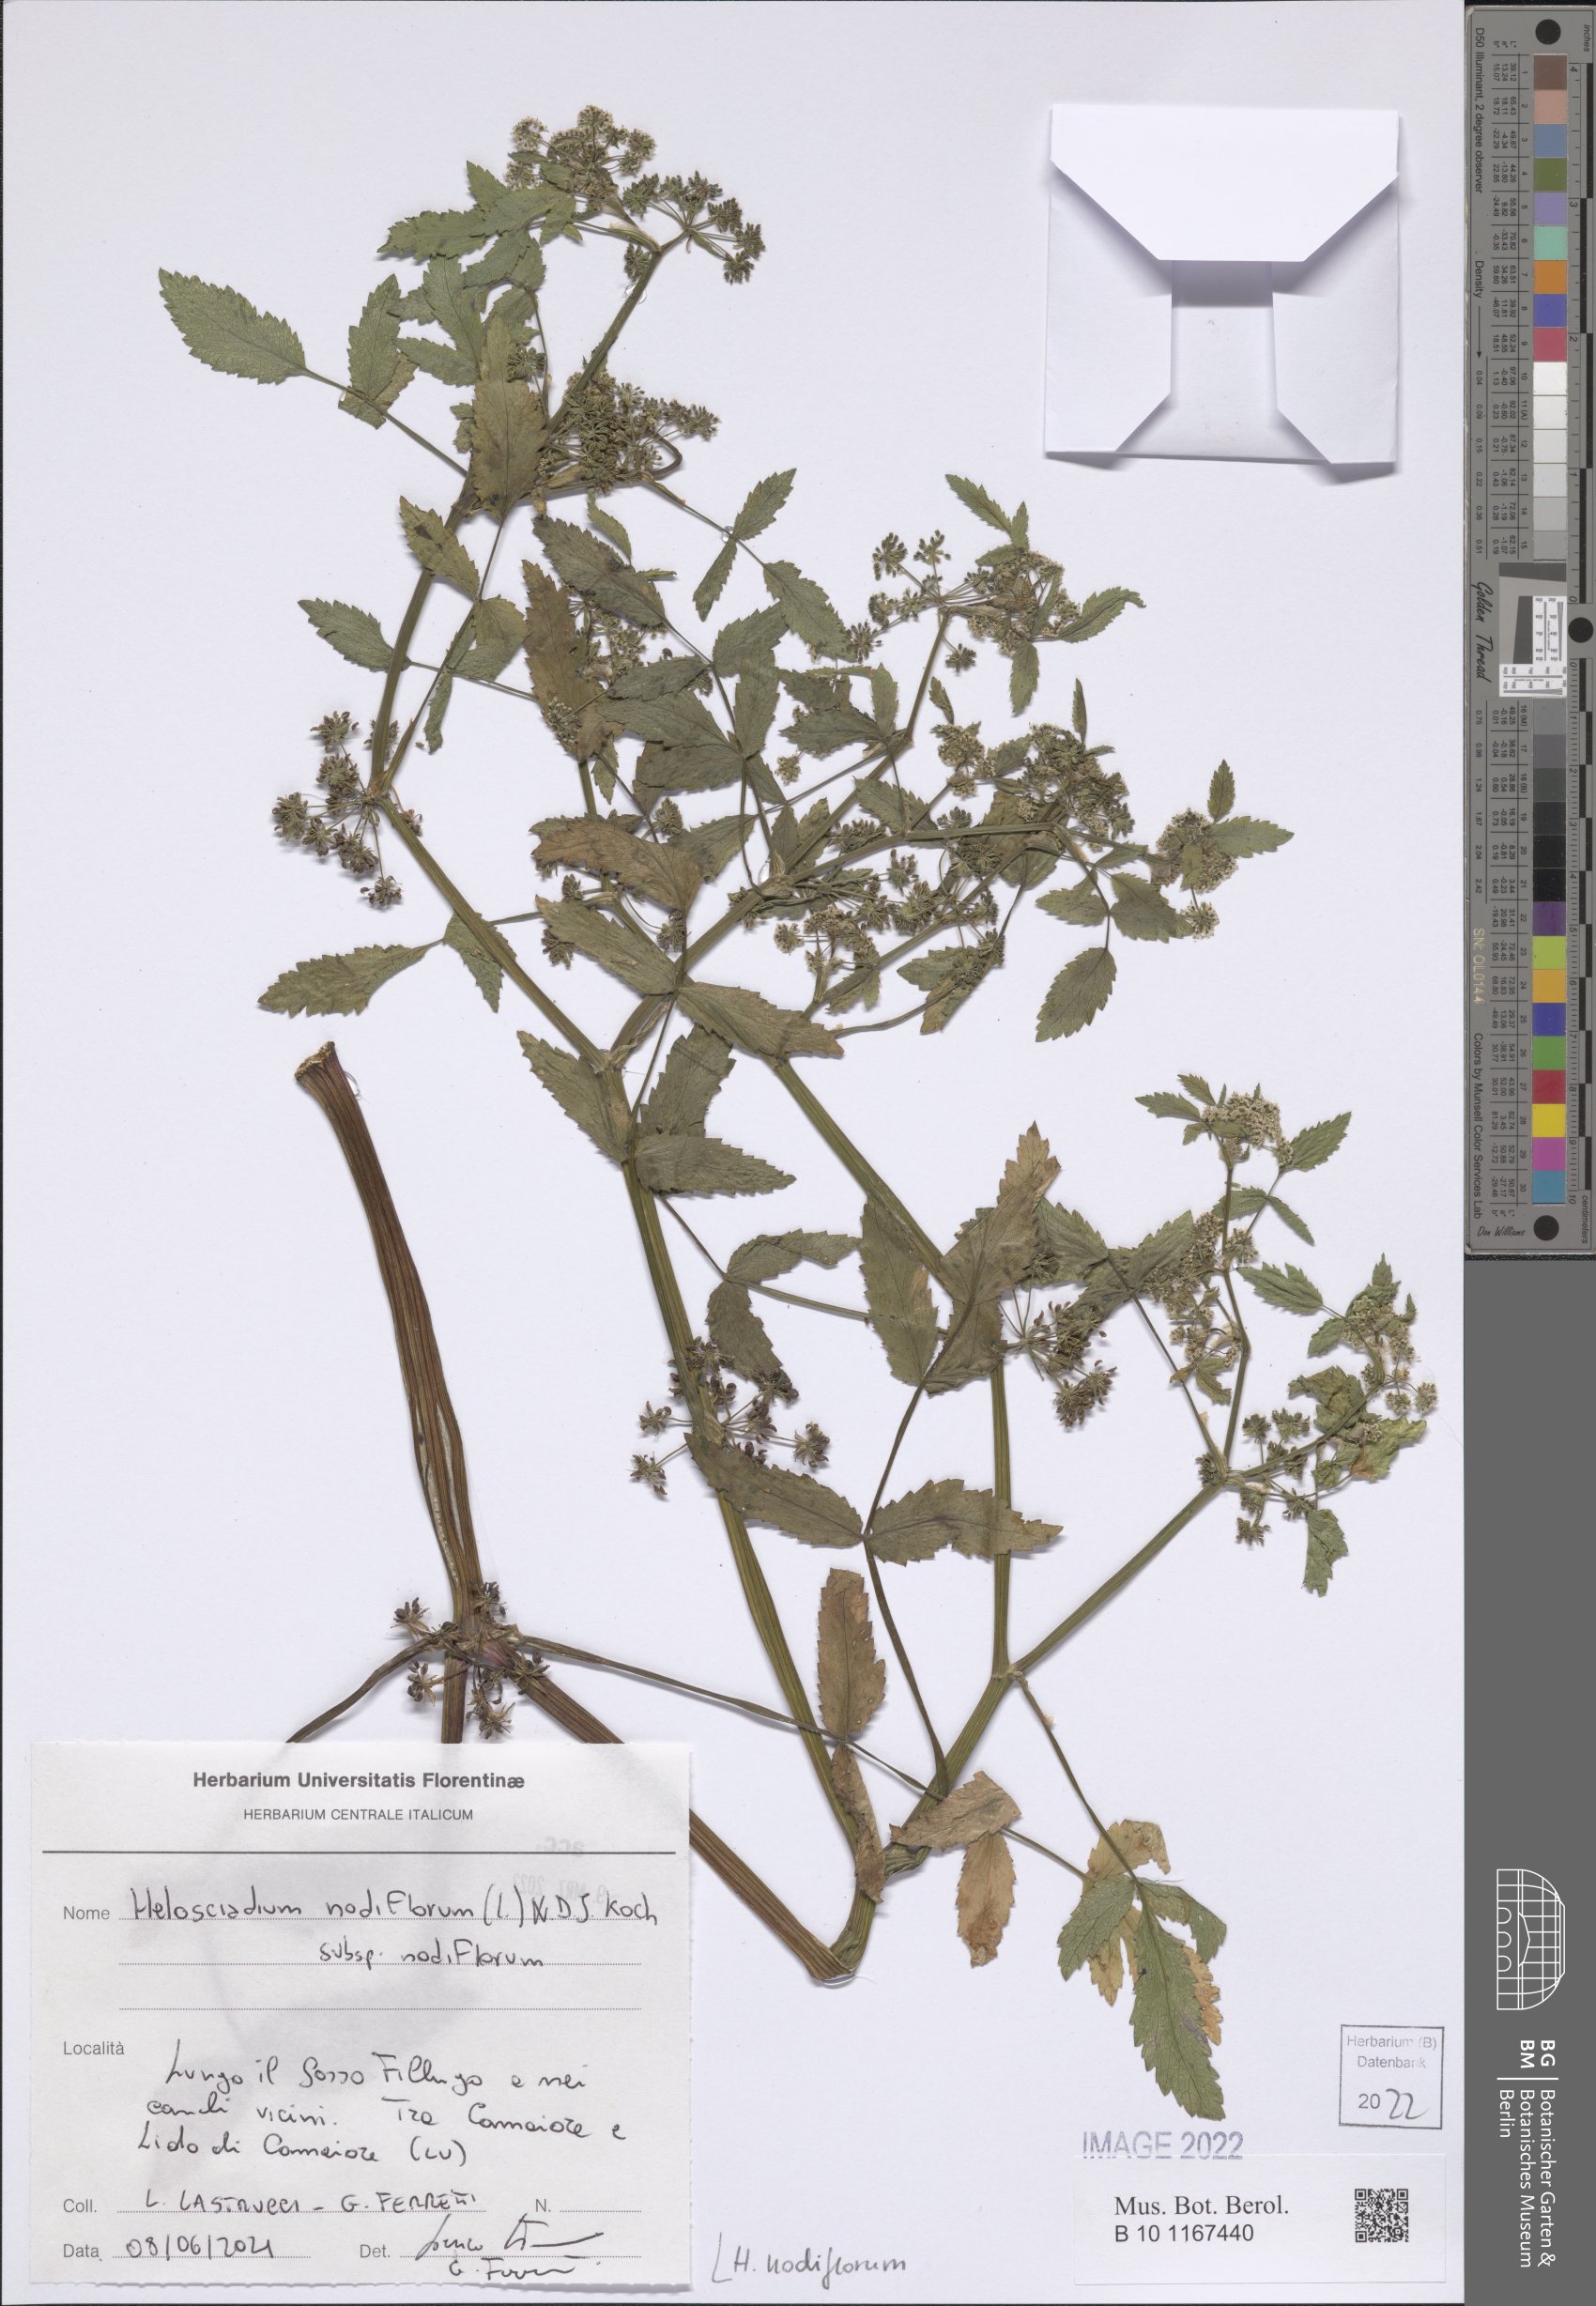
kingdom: Plantae
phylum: Tracheophyta
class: Magnoliopsida
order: Apiales
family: Apiaceae
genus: Helosciadium
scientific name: Helosciadium nodiflorum
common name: Fool's-watercress
